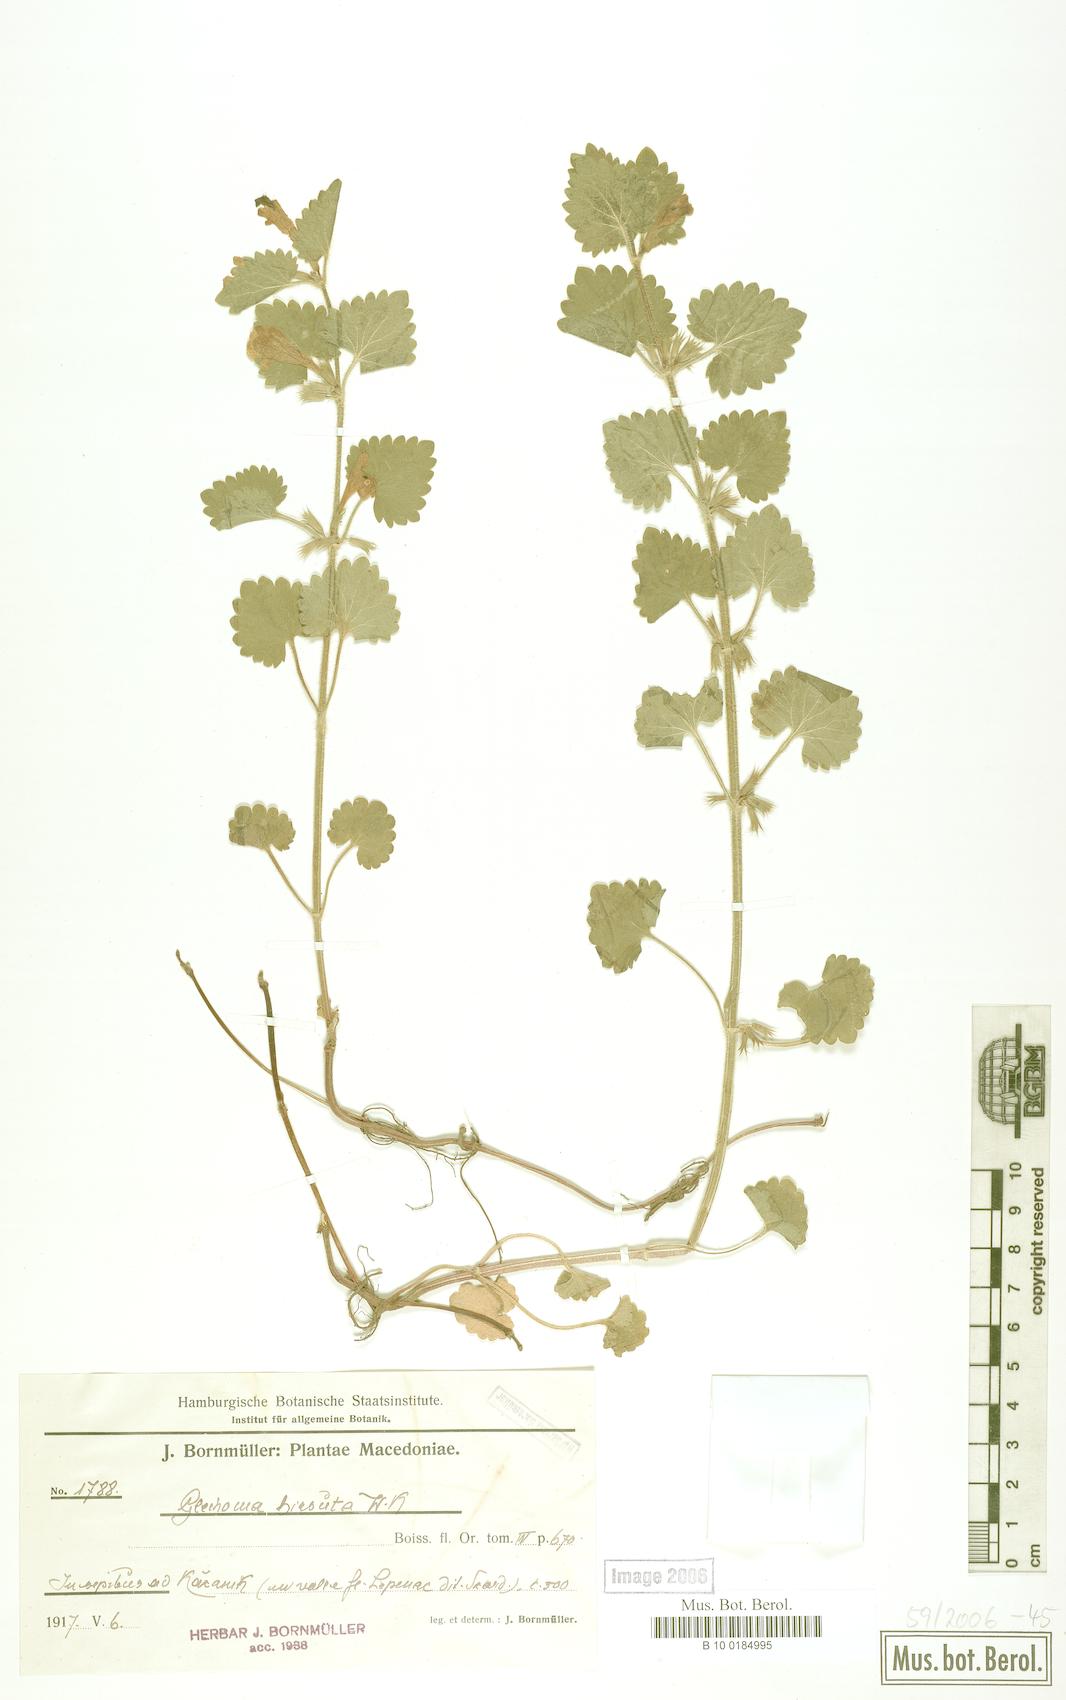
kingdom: Plantae
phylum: Tracheophyta
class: Magnoliopsida
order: Lamiales
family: Lamiaceae
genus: Glechoma
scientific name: Glechoma hirsuta
